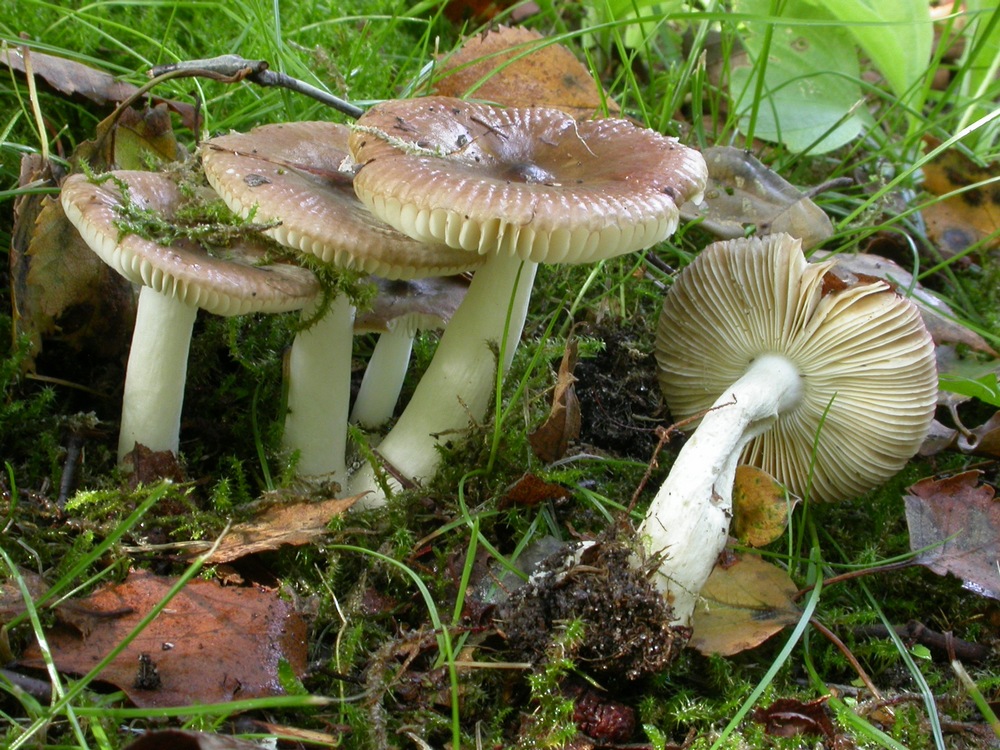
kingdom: Fungi
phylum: Basidiomycota
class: Agaricomycetes
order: Russulales
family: Russulaceae
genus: Russula
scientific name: Russula nitida
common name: året skørhat
